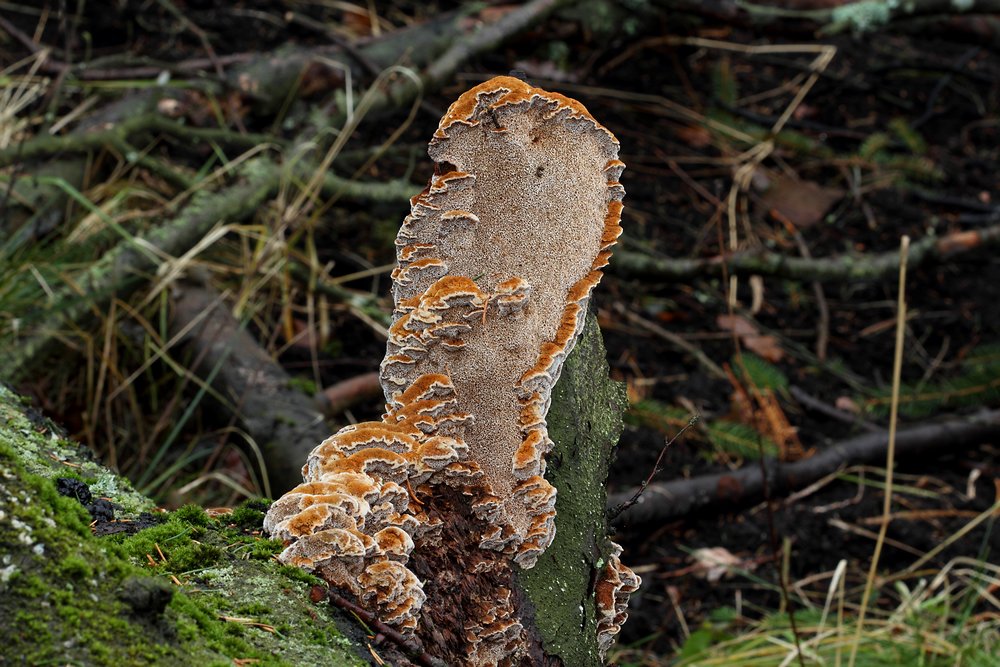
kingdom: Fungi
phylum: Basidiomycota
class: Agaricomycetes
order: Hymenochaetales
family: Hymenochaetaceae
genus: Mensularia
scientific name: Mensularia nodulosa
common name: bøge-spejlporesvamp
